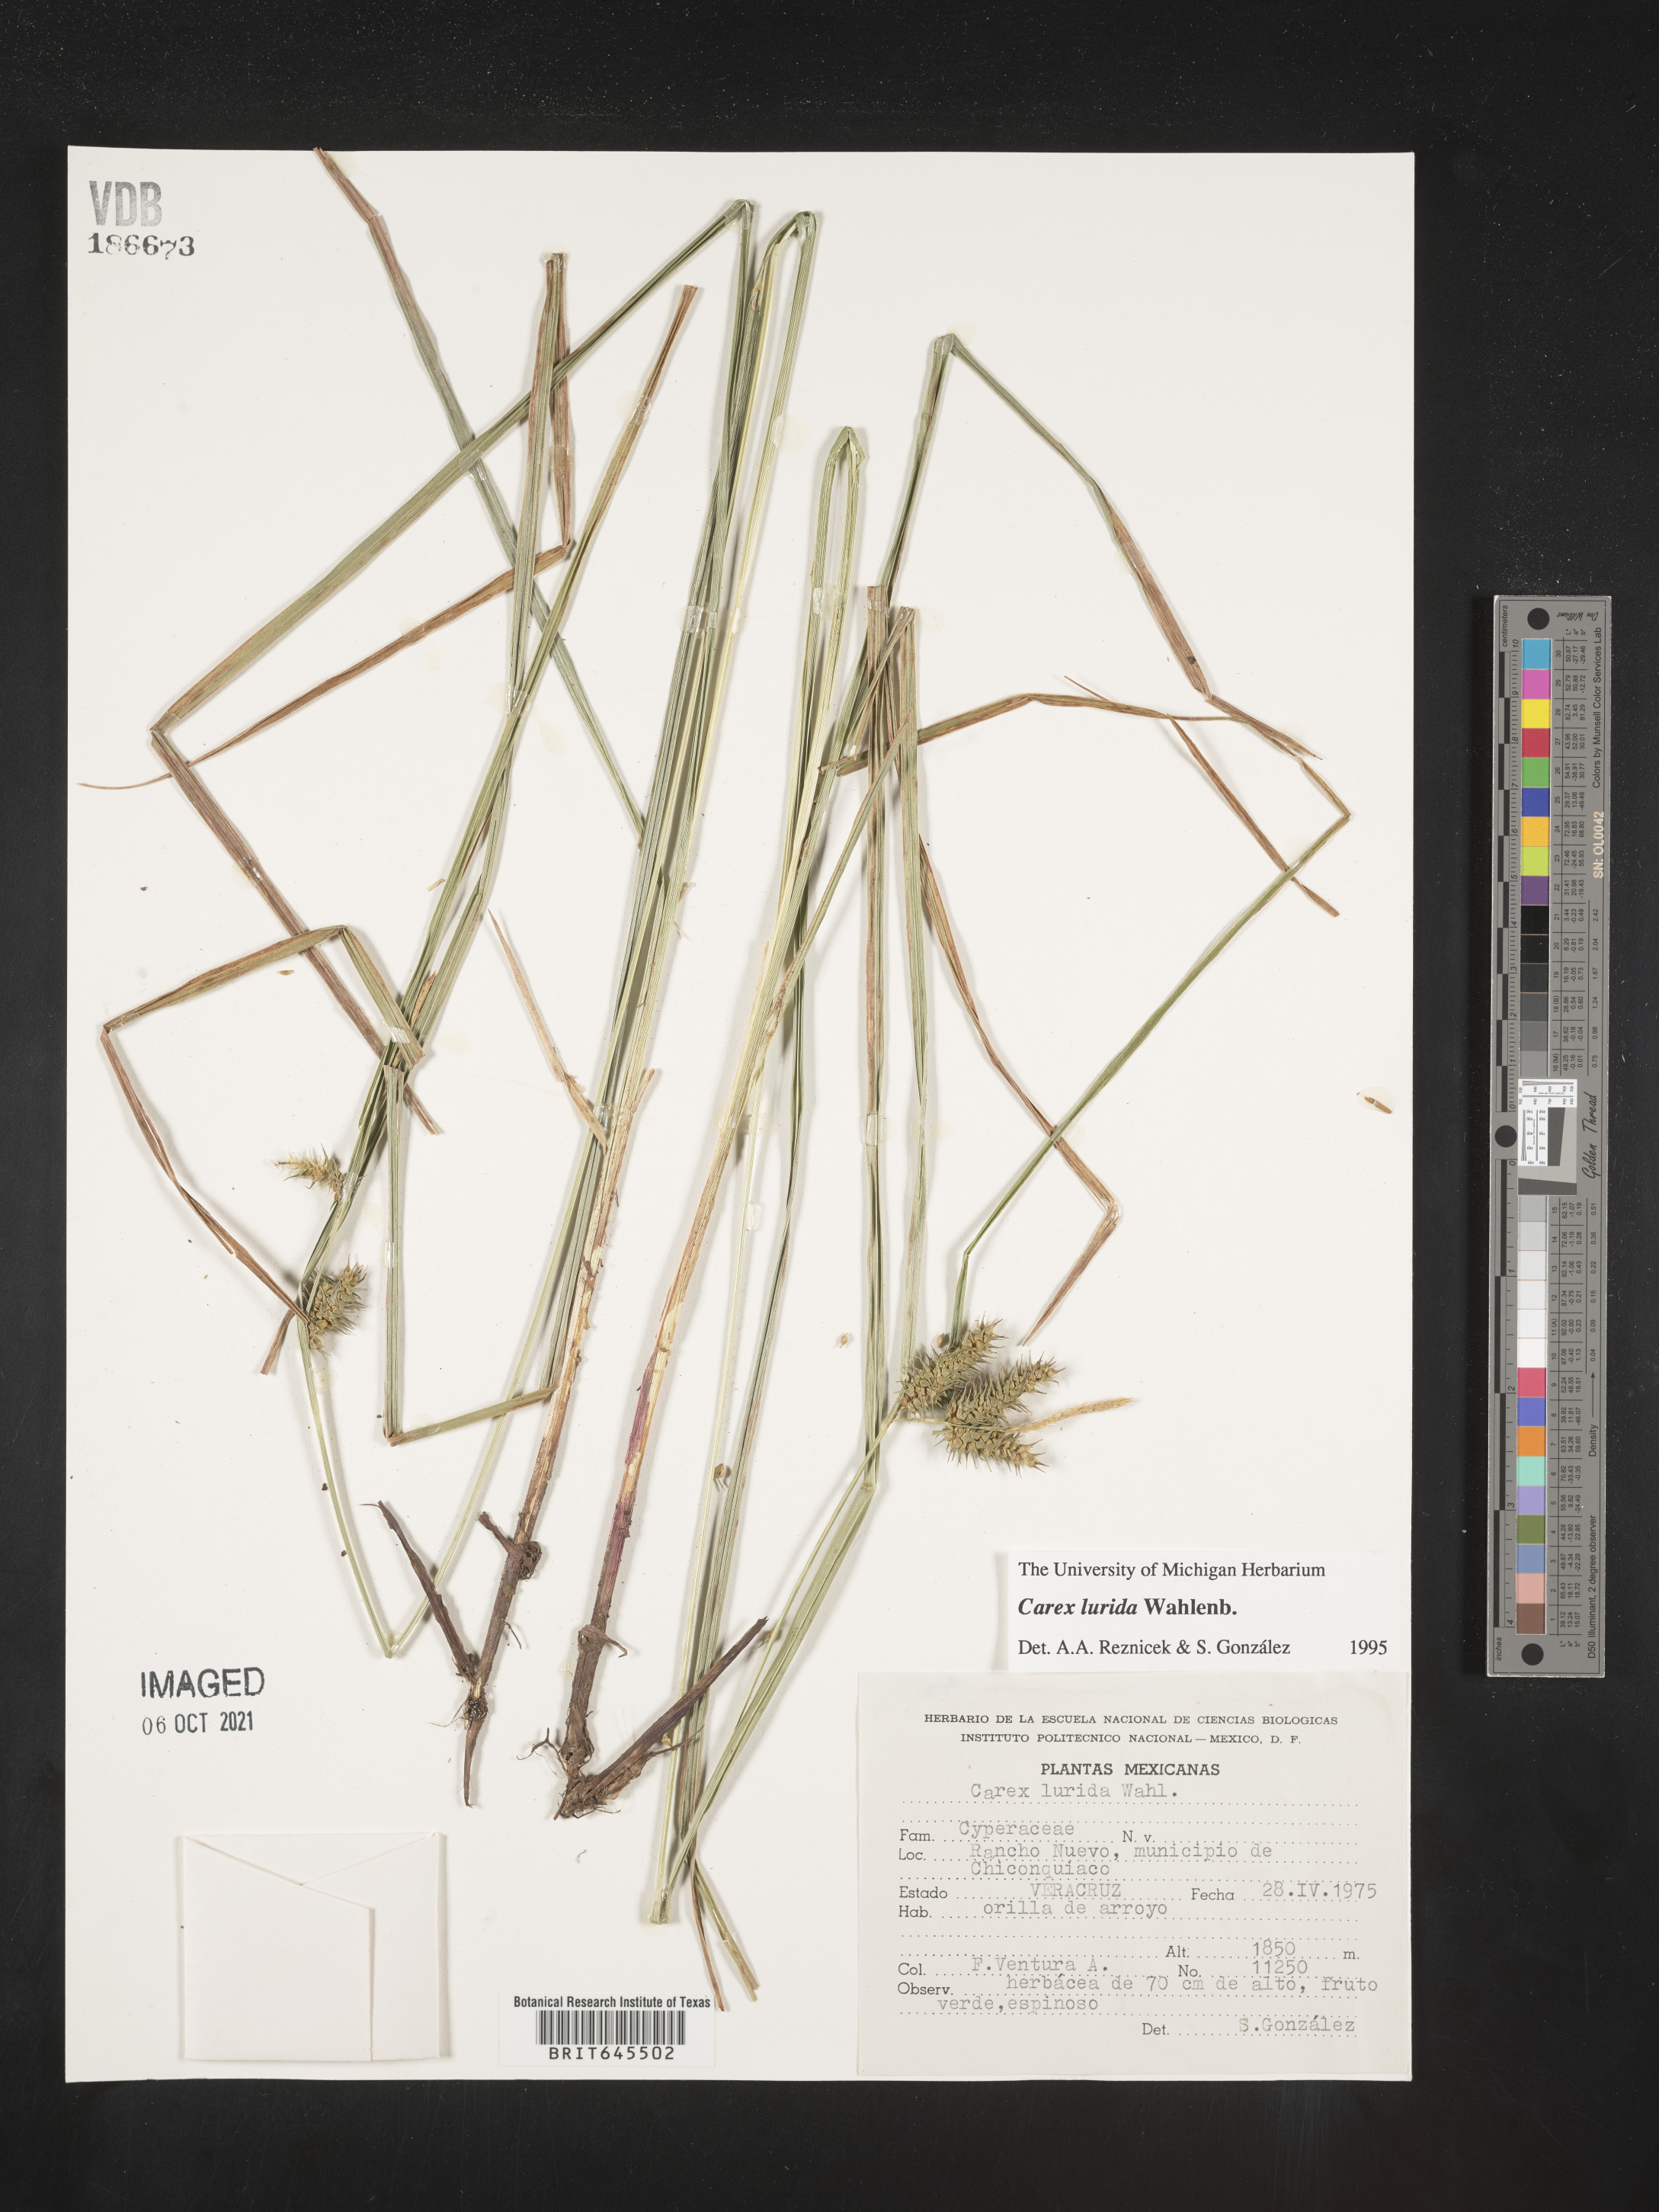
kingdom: Plantae
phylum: Tracheophyta
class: Liliopsida
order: Poales
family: Cyperaceae
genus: Carex
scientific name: Carex
